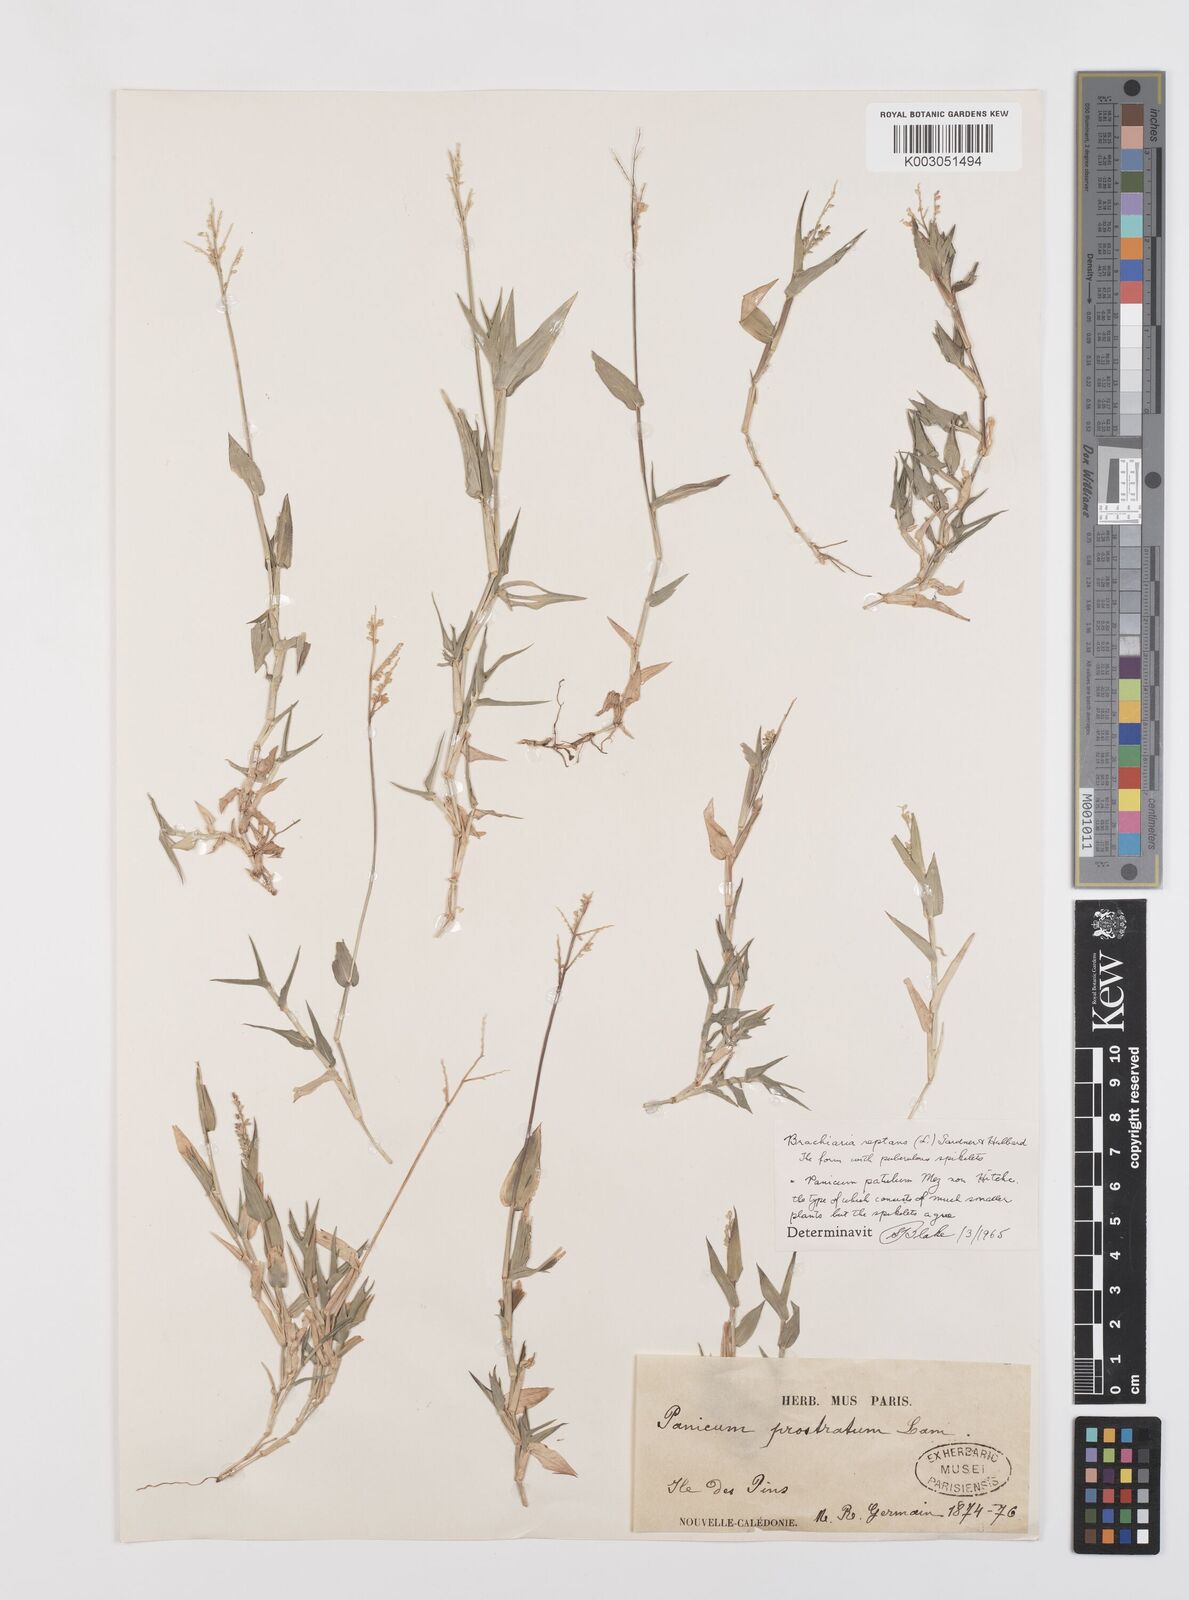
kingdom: Plantae
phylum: Tracheophyta
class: Liliopsida
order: Poales
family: Poaceae
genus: Urochloa
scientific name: Urochloa reptans
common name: Sprawling signalgrass
